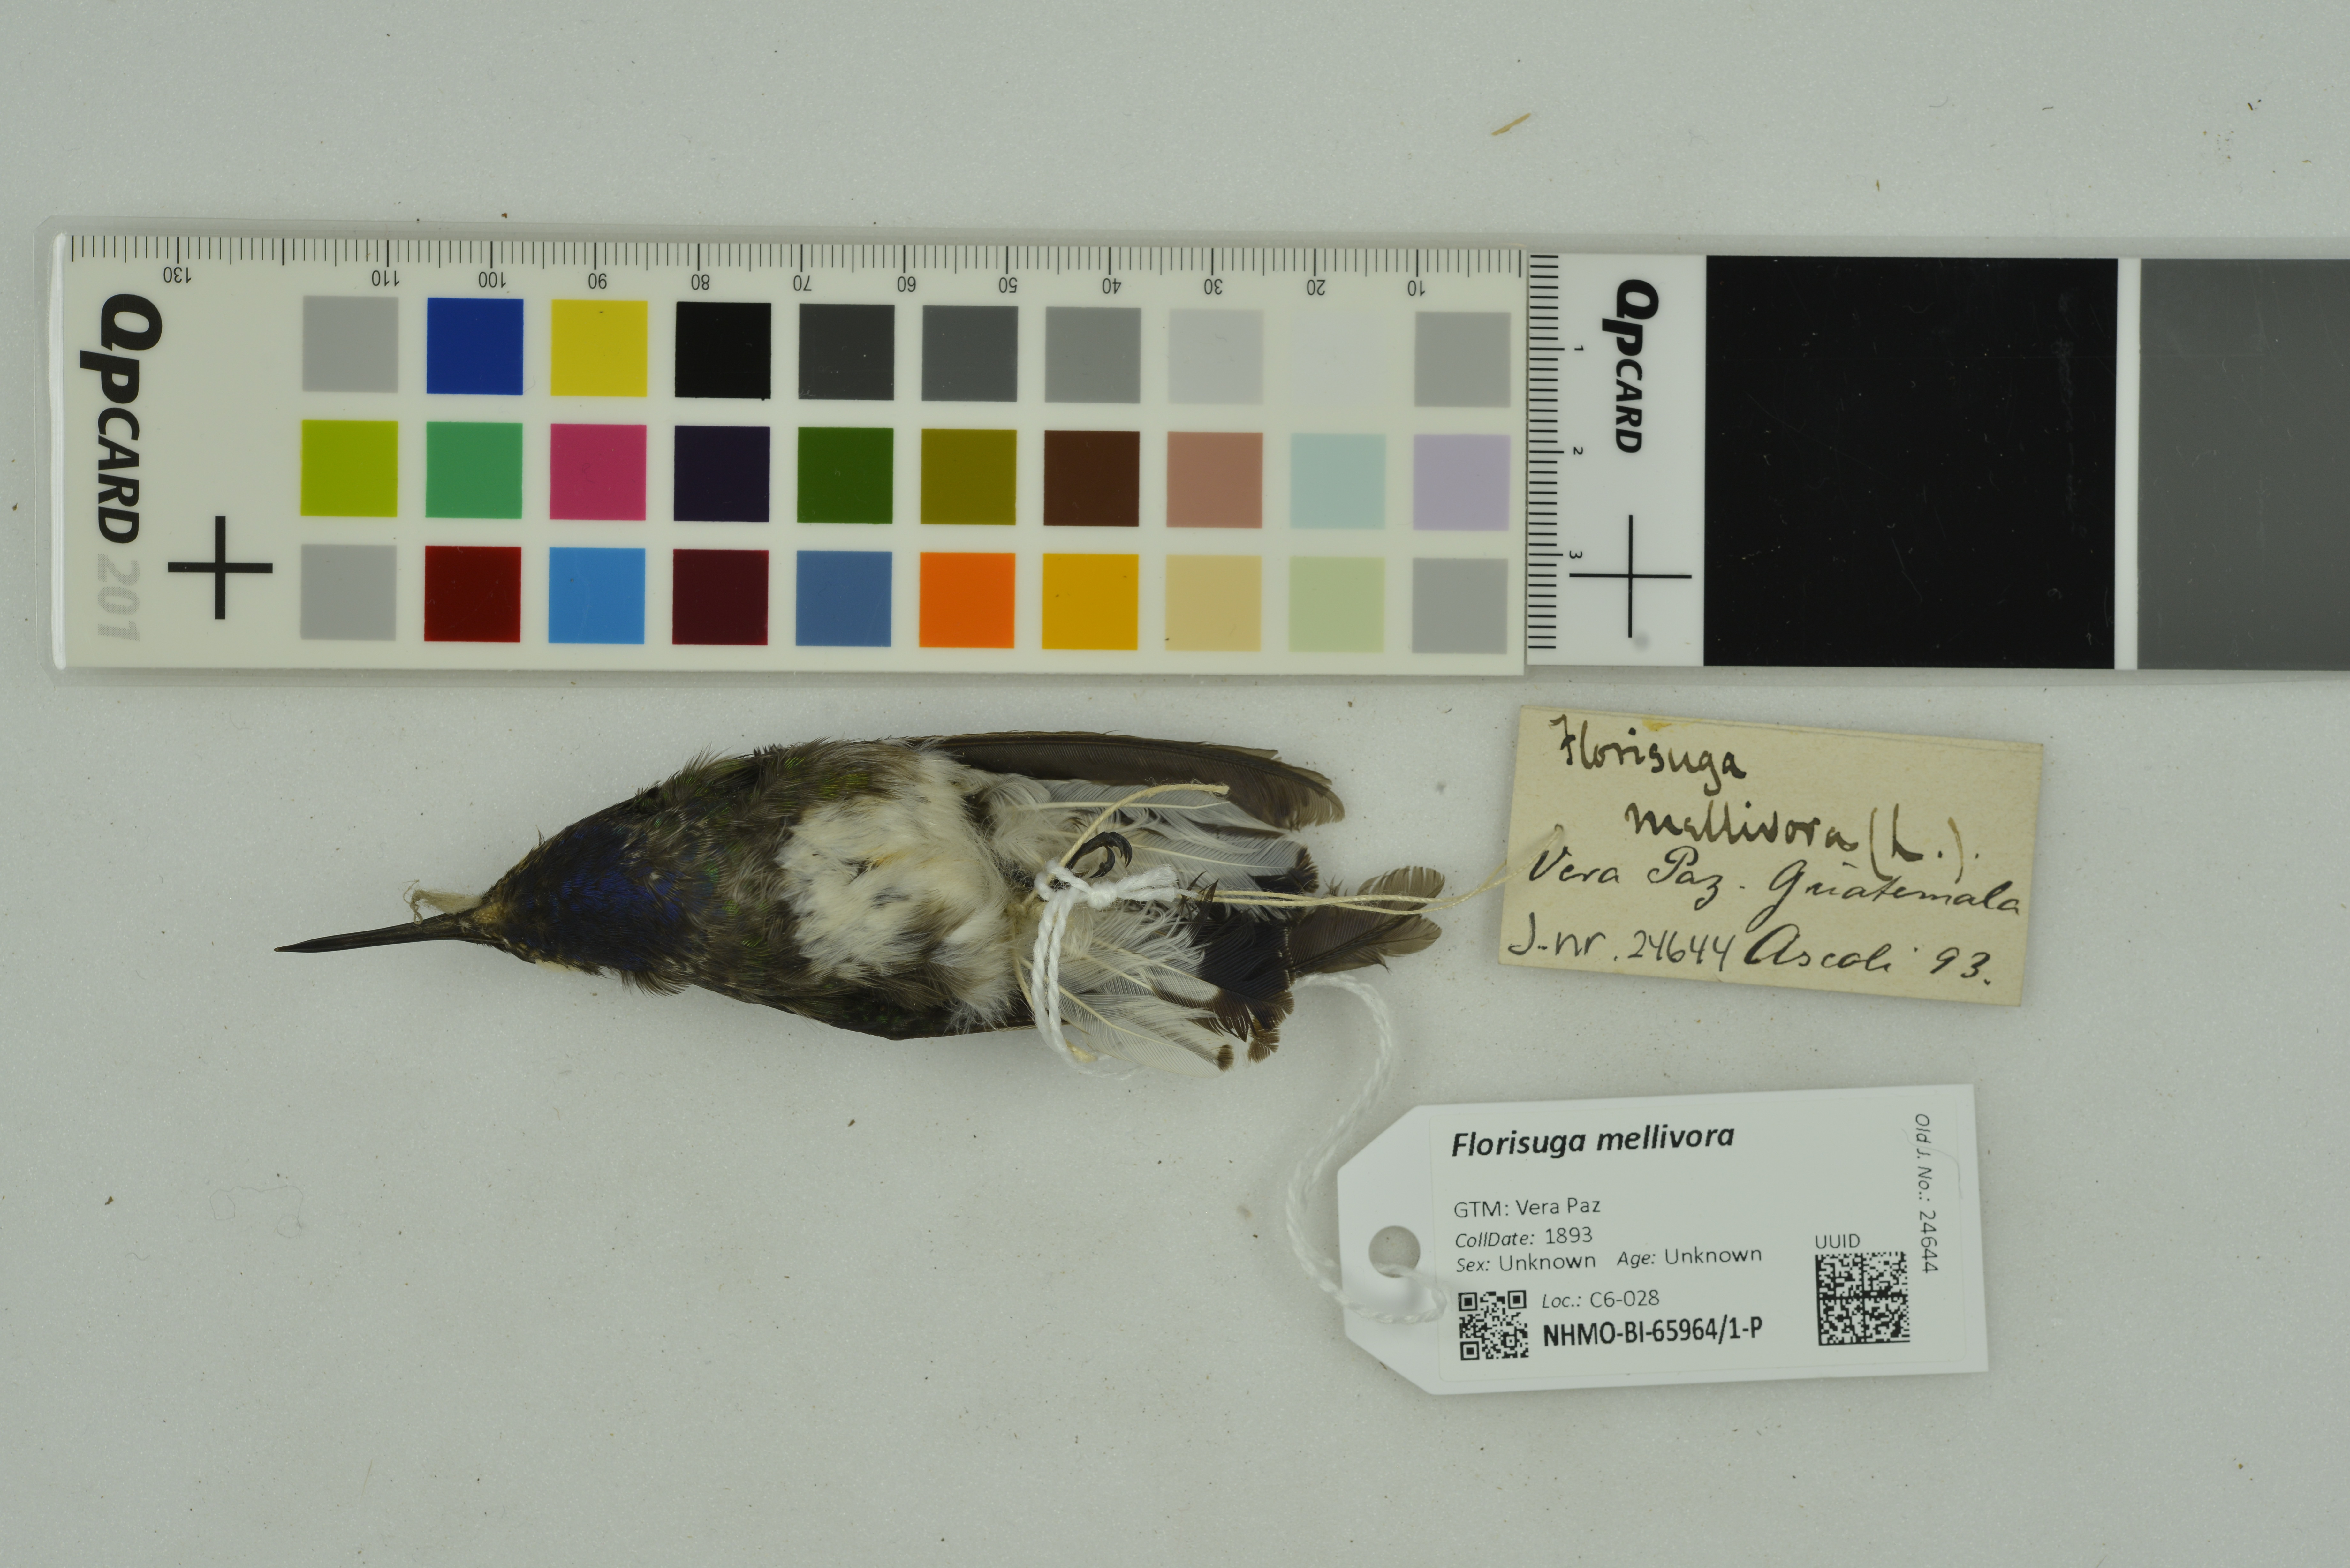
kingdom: Animalia
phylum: Chordata
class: Aves
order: Apodiformes
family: Trochilidae
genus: Florisuga
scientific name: Florisuga mellivora
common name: White-necked jacobin
